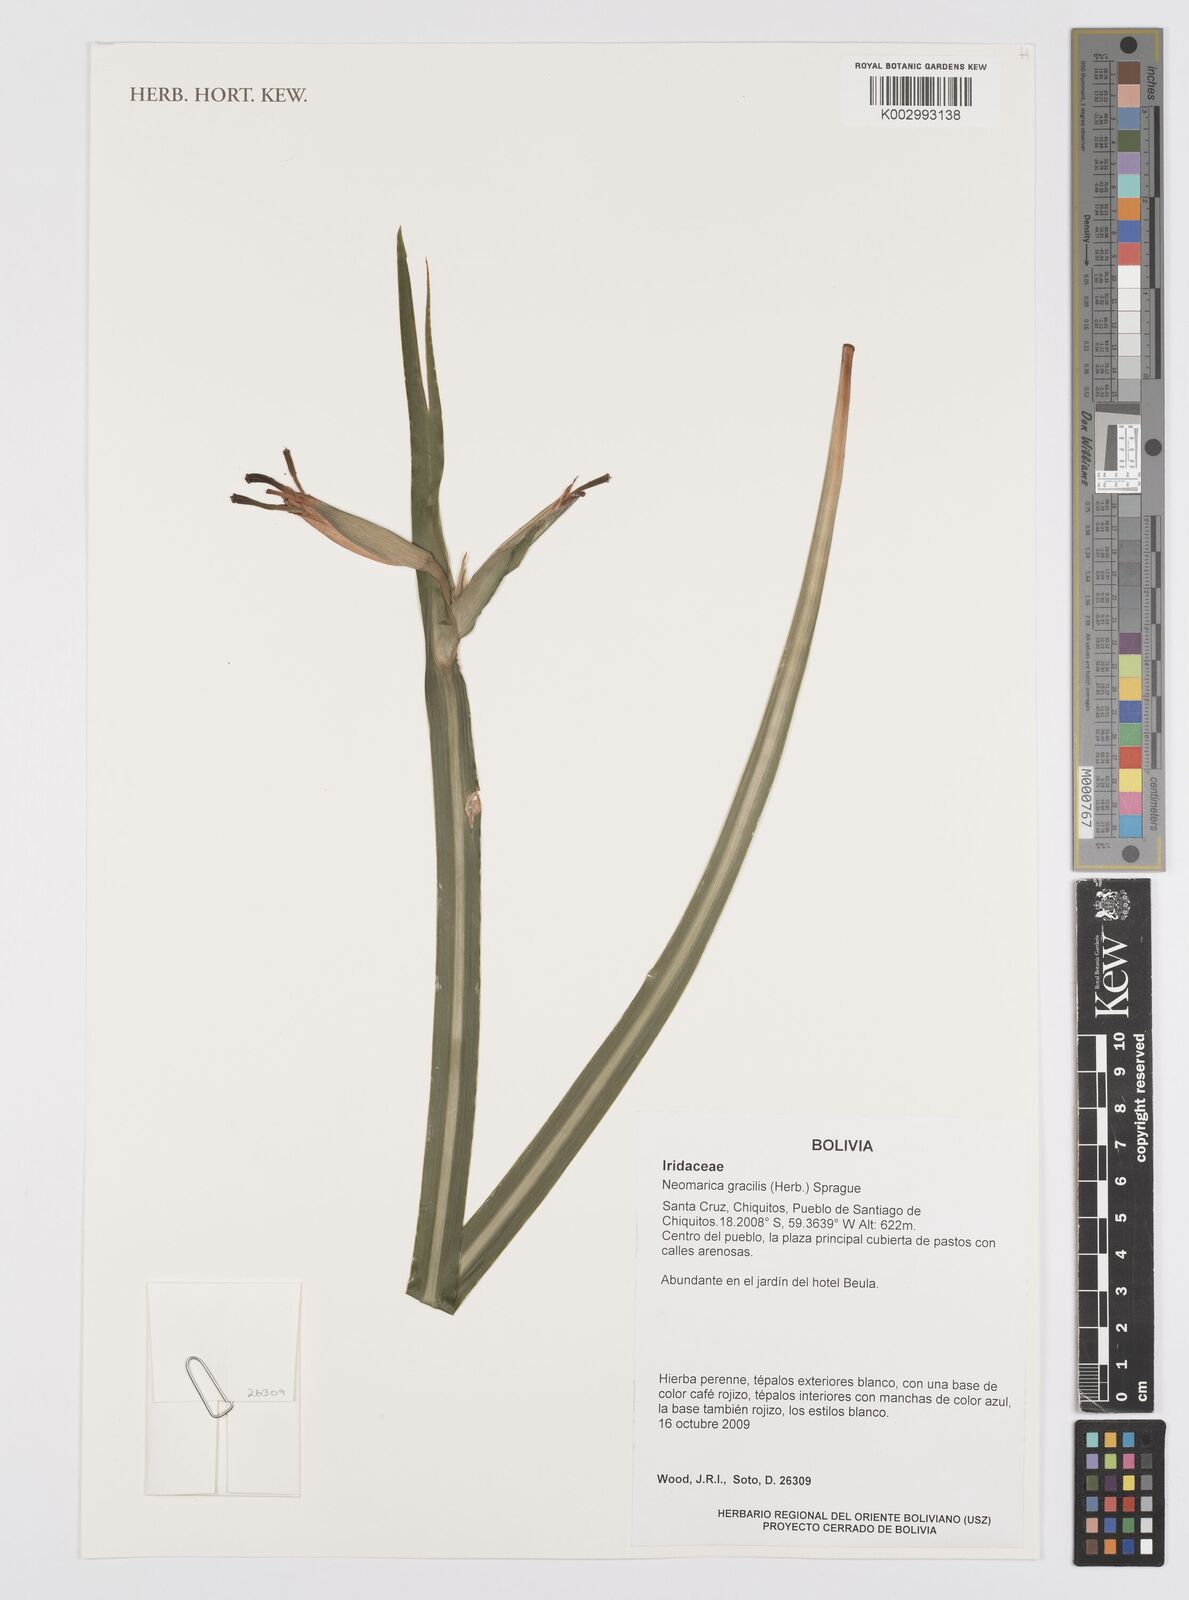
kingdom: Plantae
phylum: Tracheophyta
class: Liliopsida
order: Asparagales
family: Iridaceae
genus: Trimezia
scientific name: Trimezia gracilis
